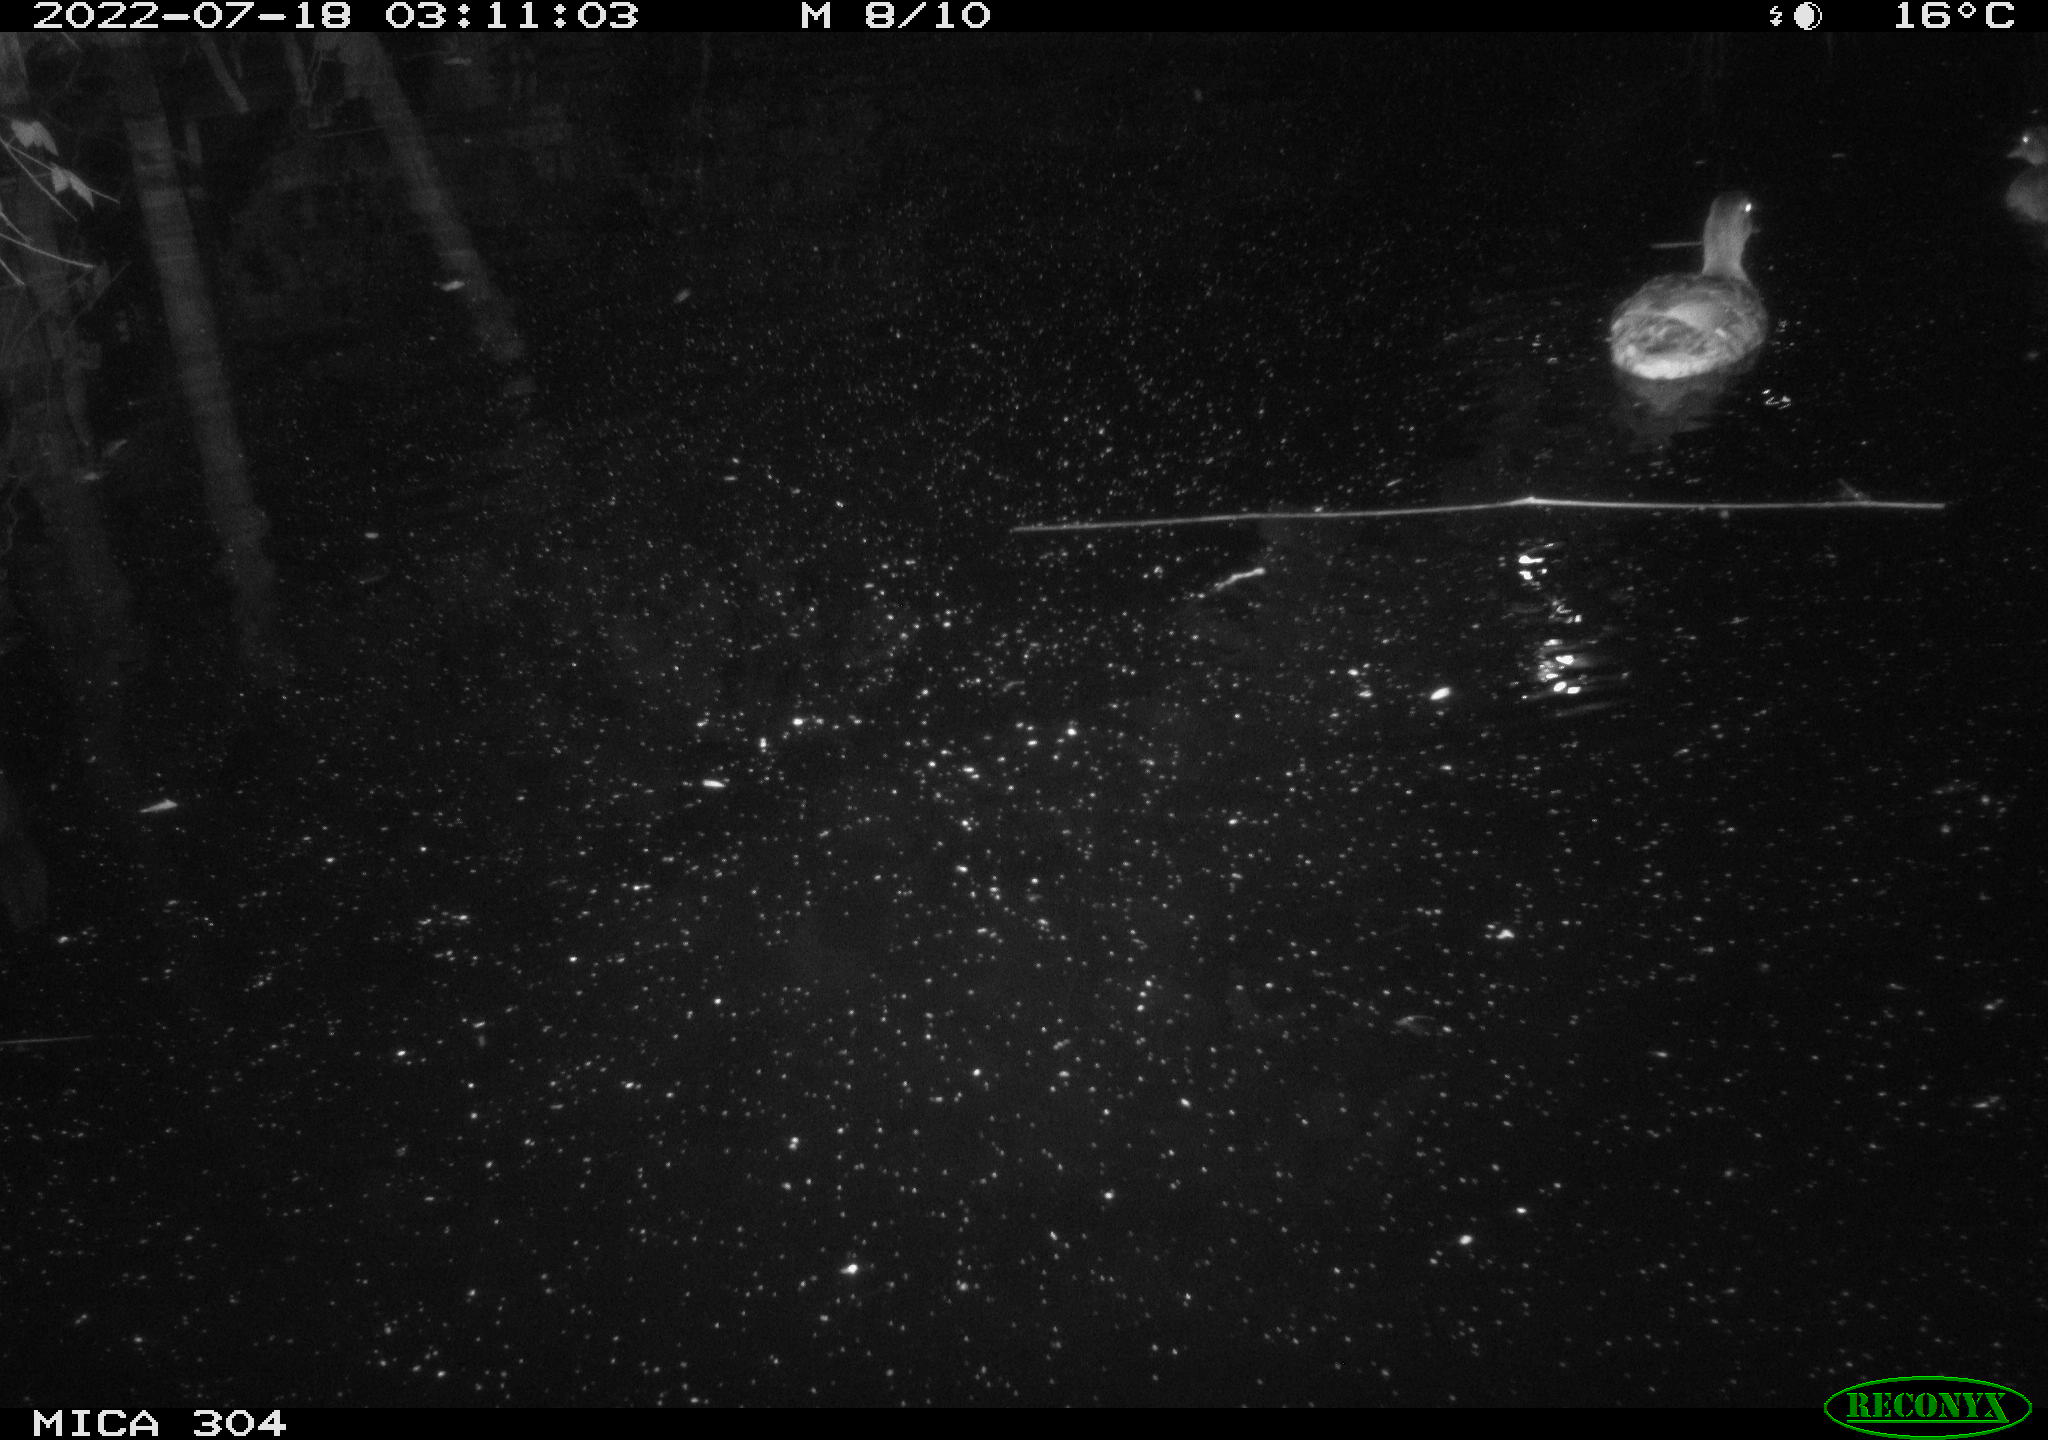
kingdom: Animalia
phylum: Chordata
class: Aves
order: Anseriformes
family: Anatidae
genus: Anas
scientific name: Anas platyrhynchos
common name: Mallard
